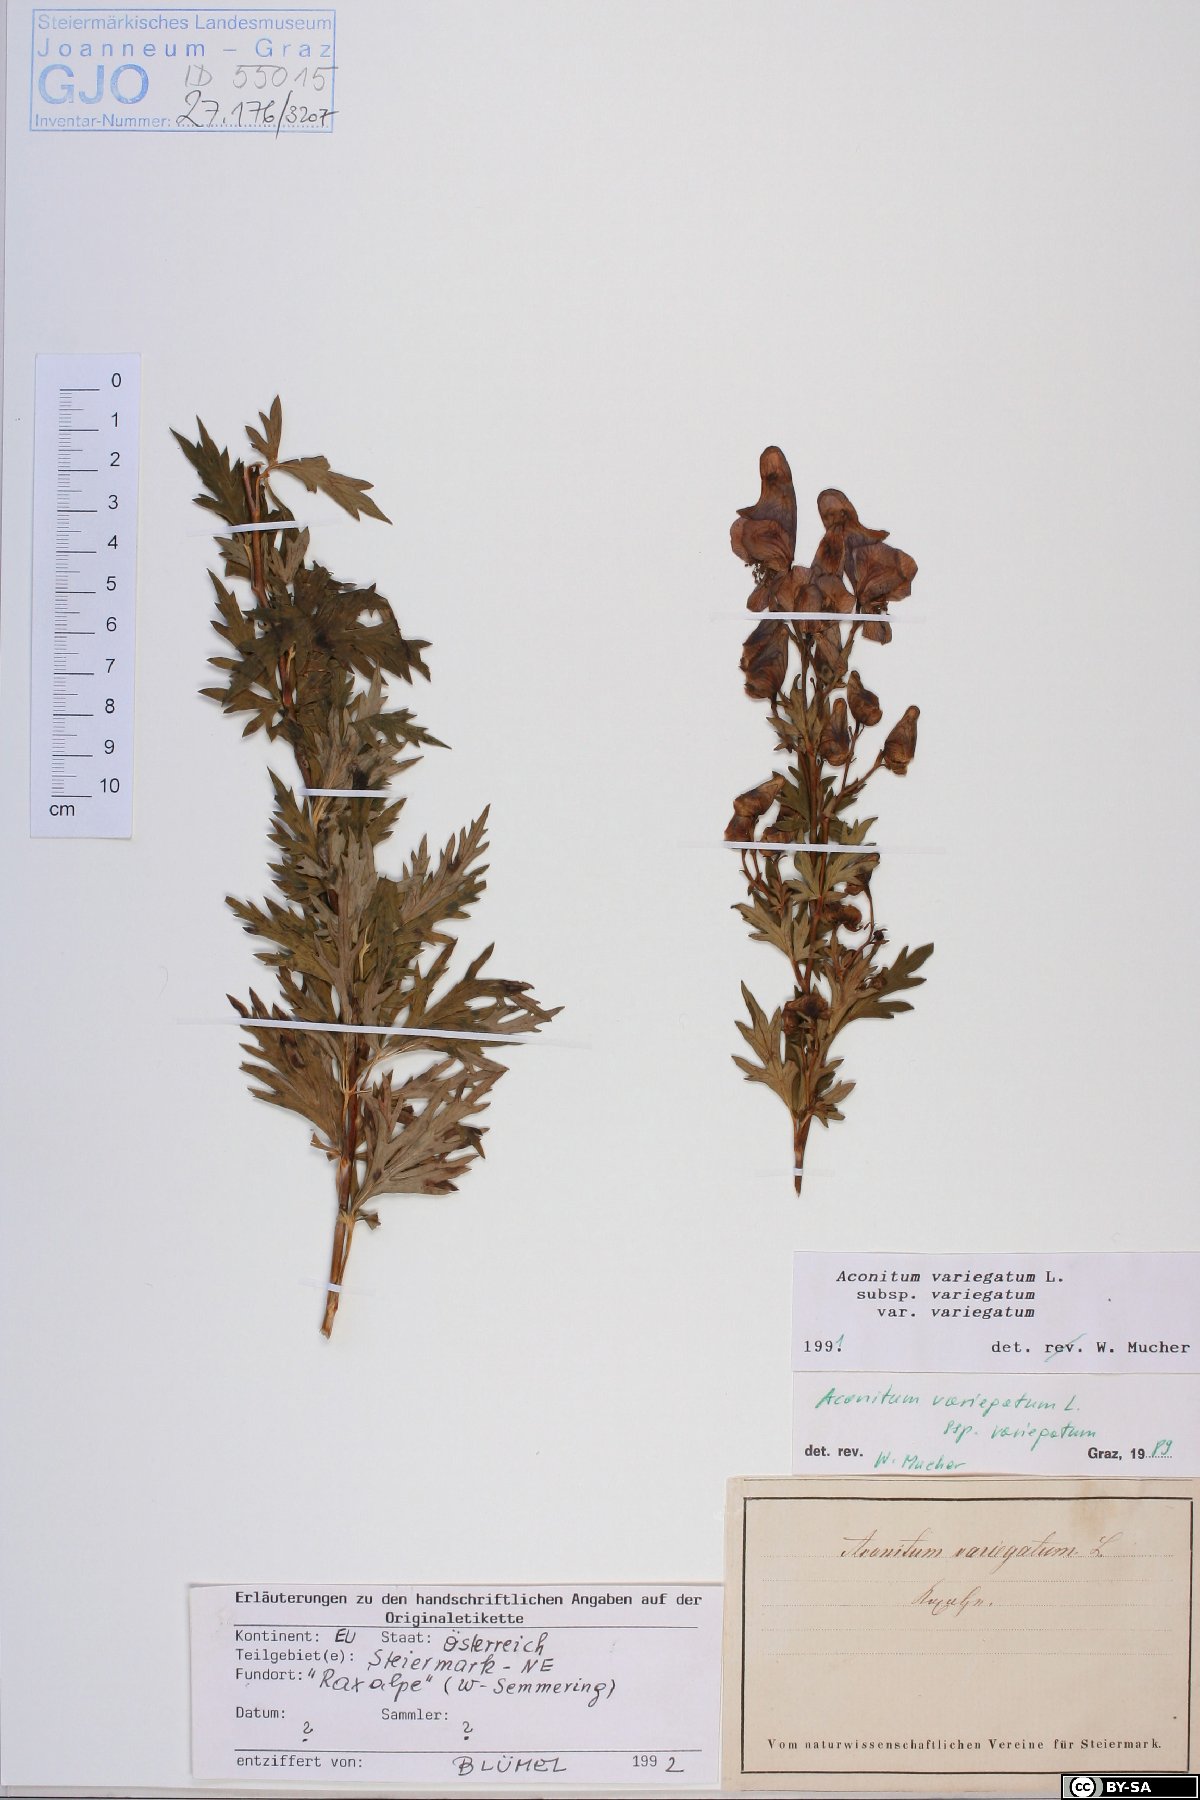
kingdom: Plantae
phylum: Tracheophyta
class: Magnoliopsida
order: Ranunculales
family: Ranunculaceae
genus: Aconitum
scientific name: Aconitum variegatum
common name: Manchurian monkshood
